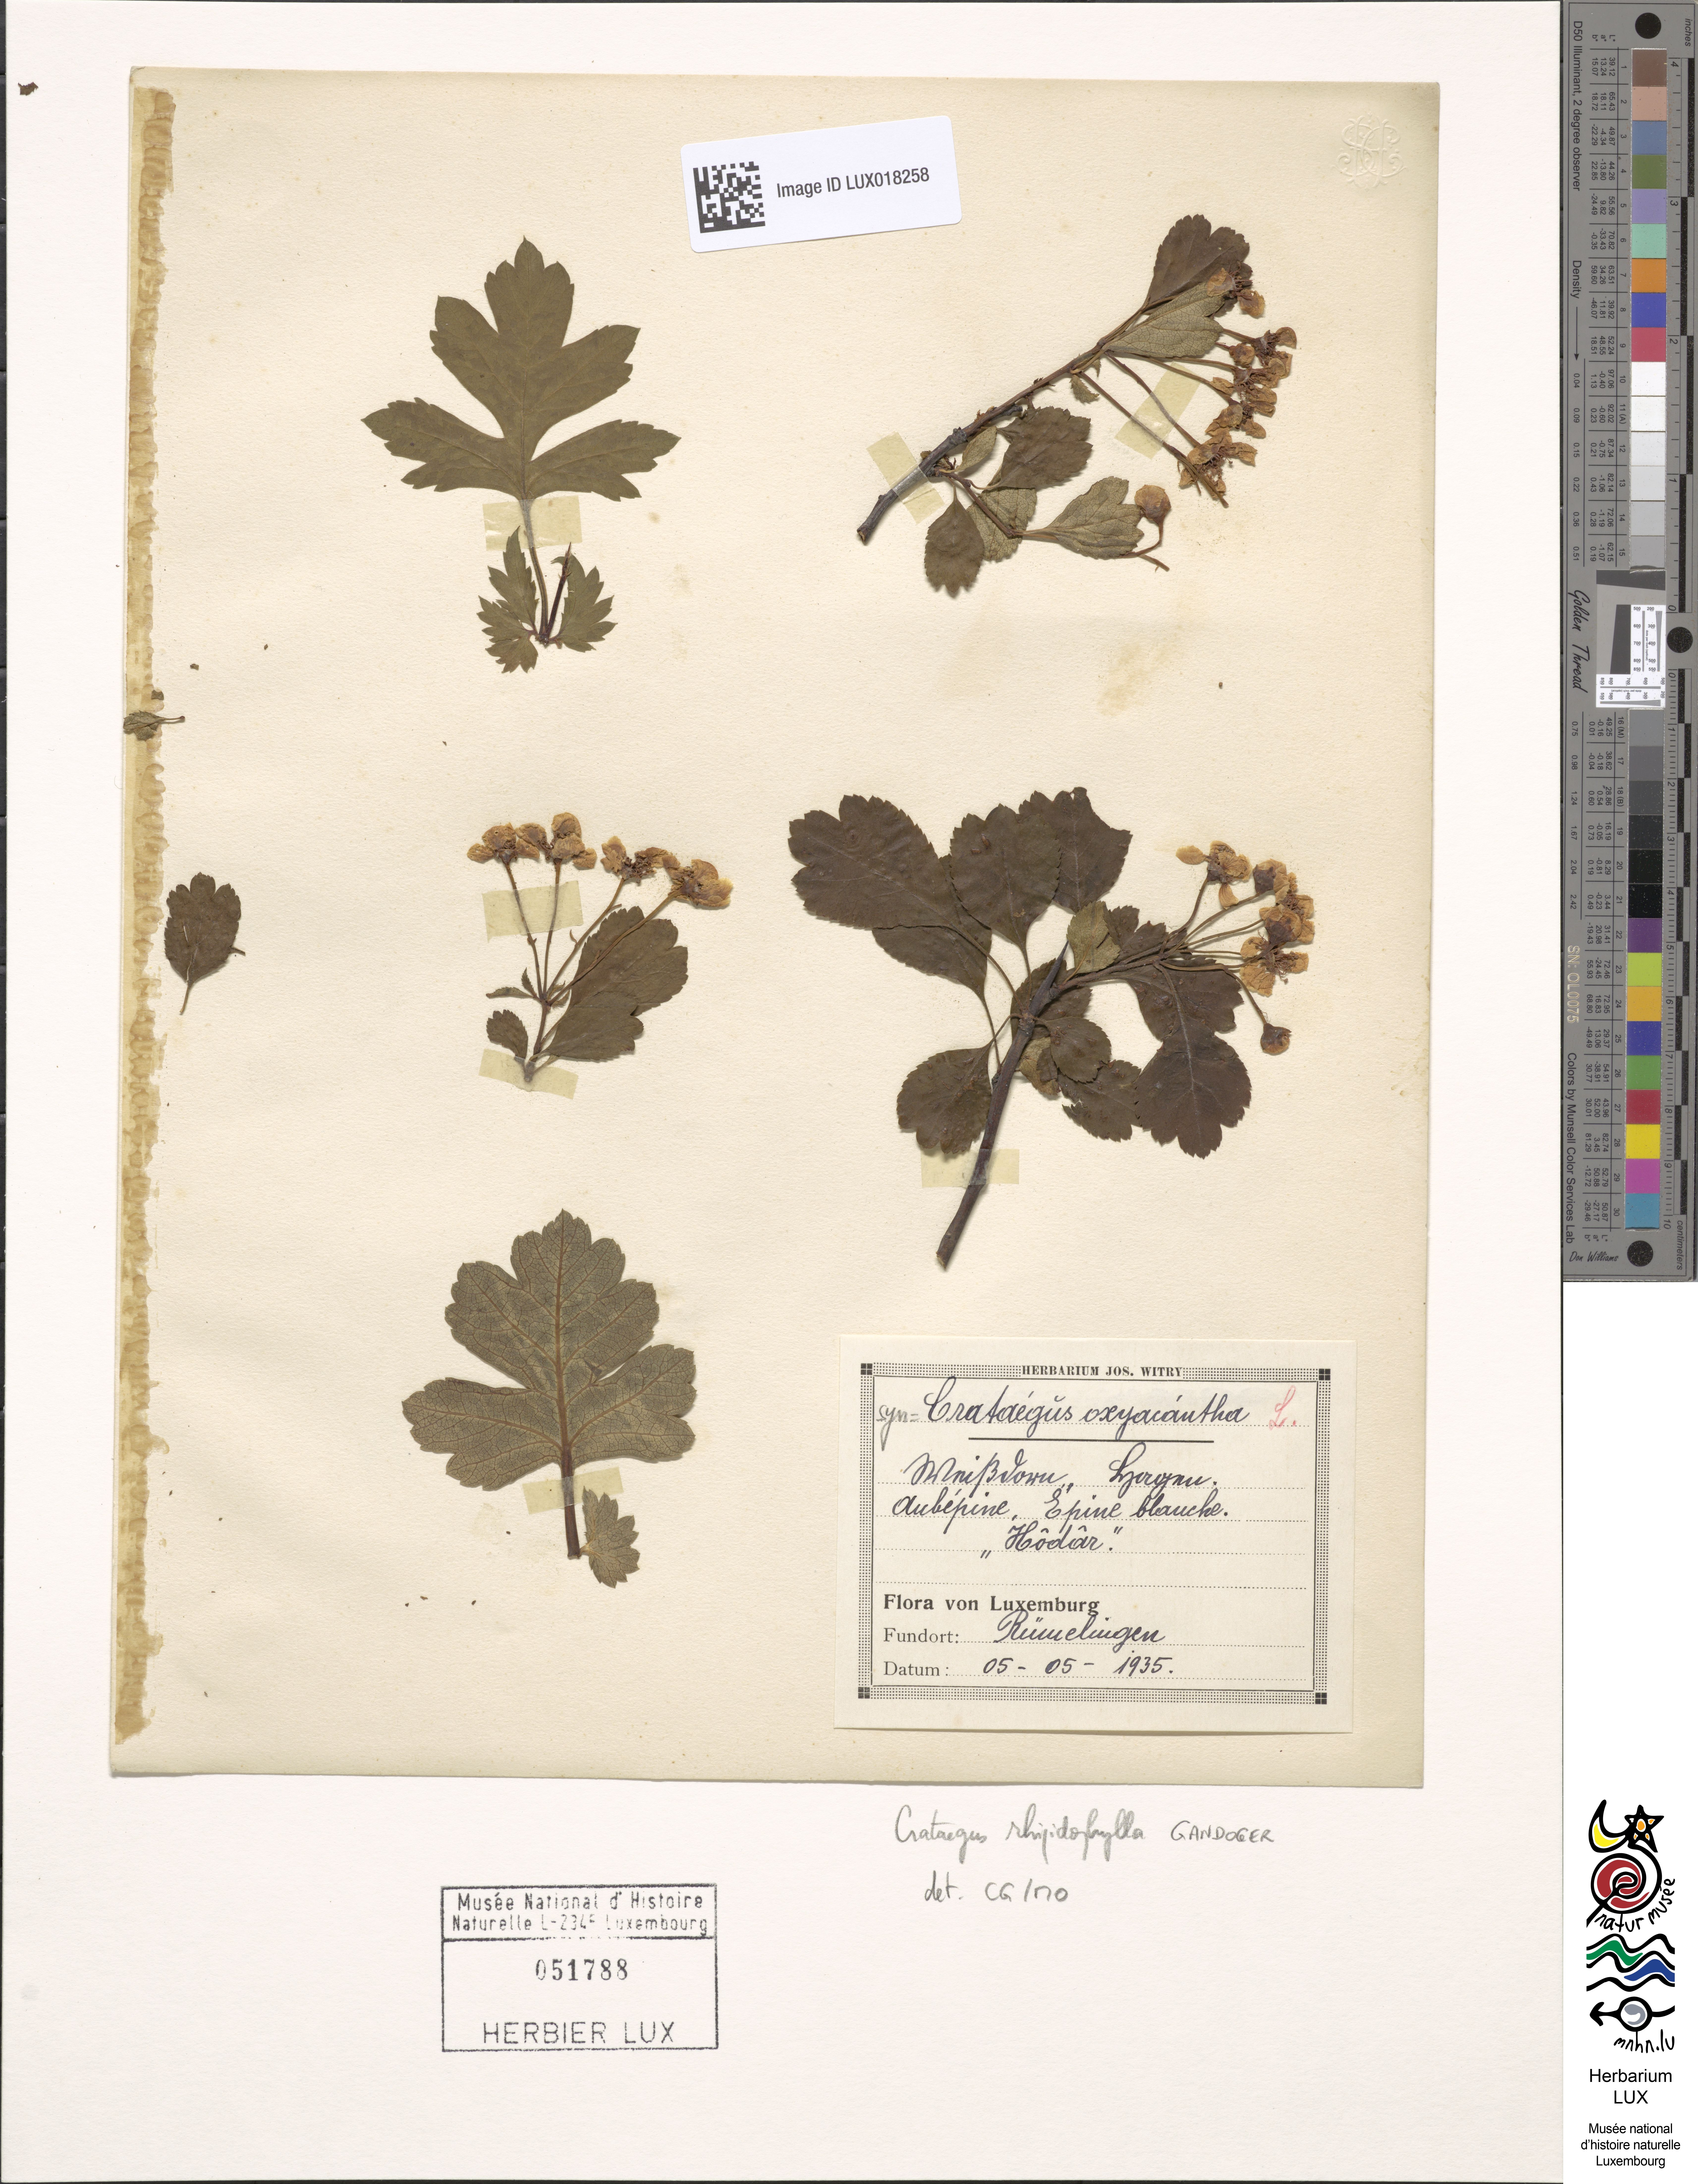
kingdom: Plantae
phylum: Tracheophyta
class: Magnoliopsida
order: Rosales
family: Rosaceae
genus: Crataegus
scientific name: Crataegus rhipidophylla
